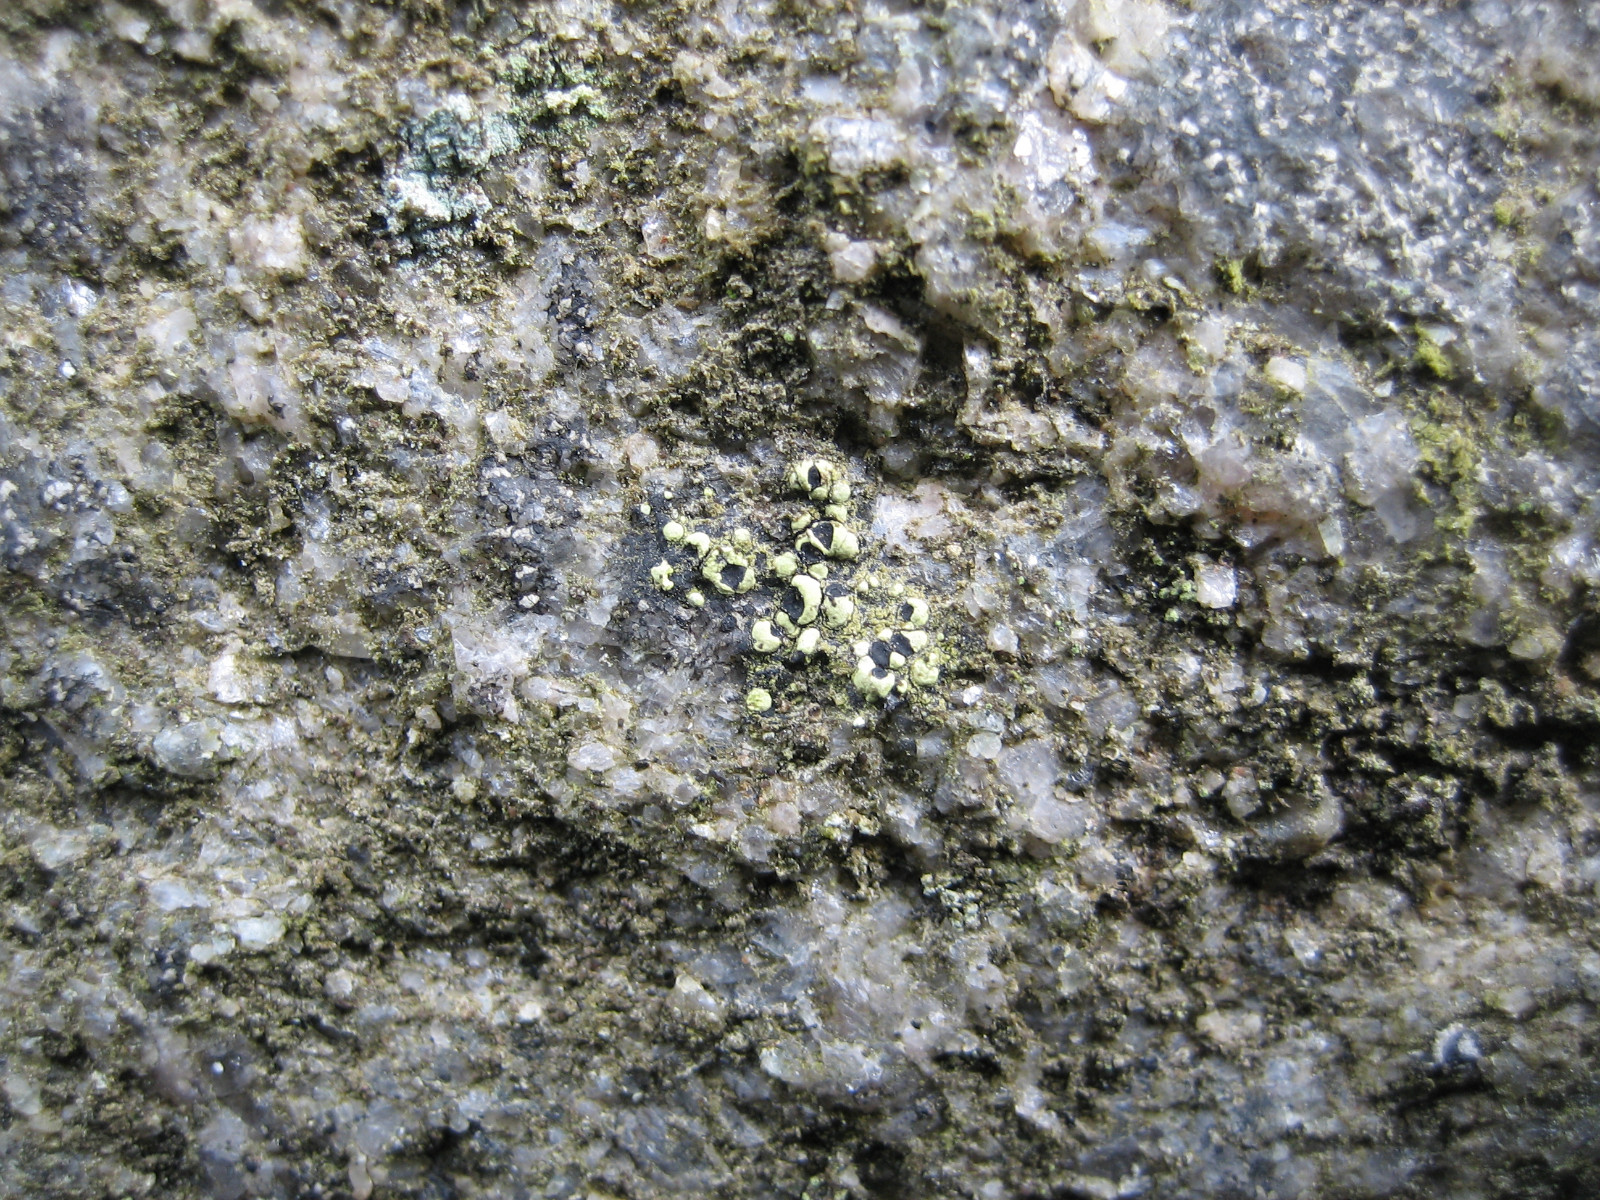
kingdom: Fungi
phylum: Ascomycota
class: Lecanoromycetes
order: Rhizocarpales
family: Rhizocarpaceae
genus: Rhizocarpon
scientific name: Rhizocarpon lecanorinum
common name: krave-landkortlav
